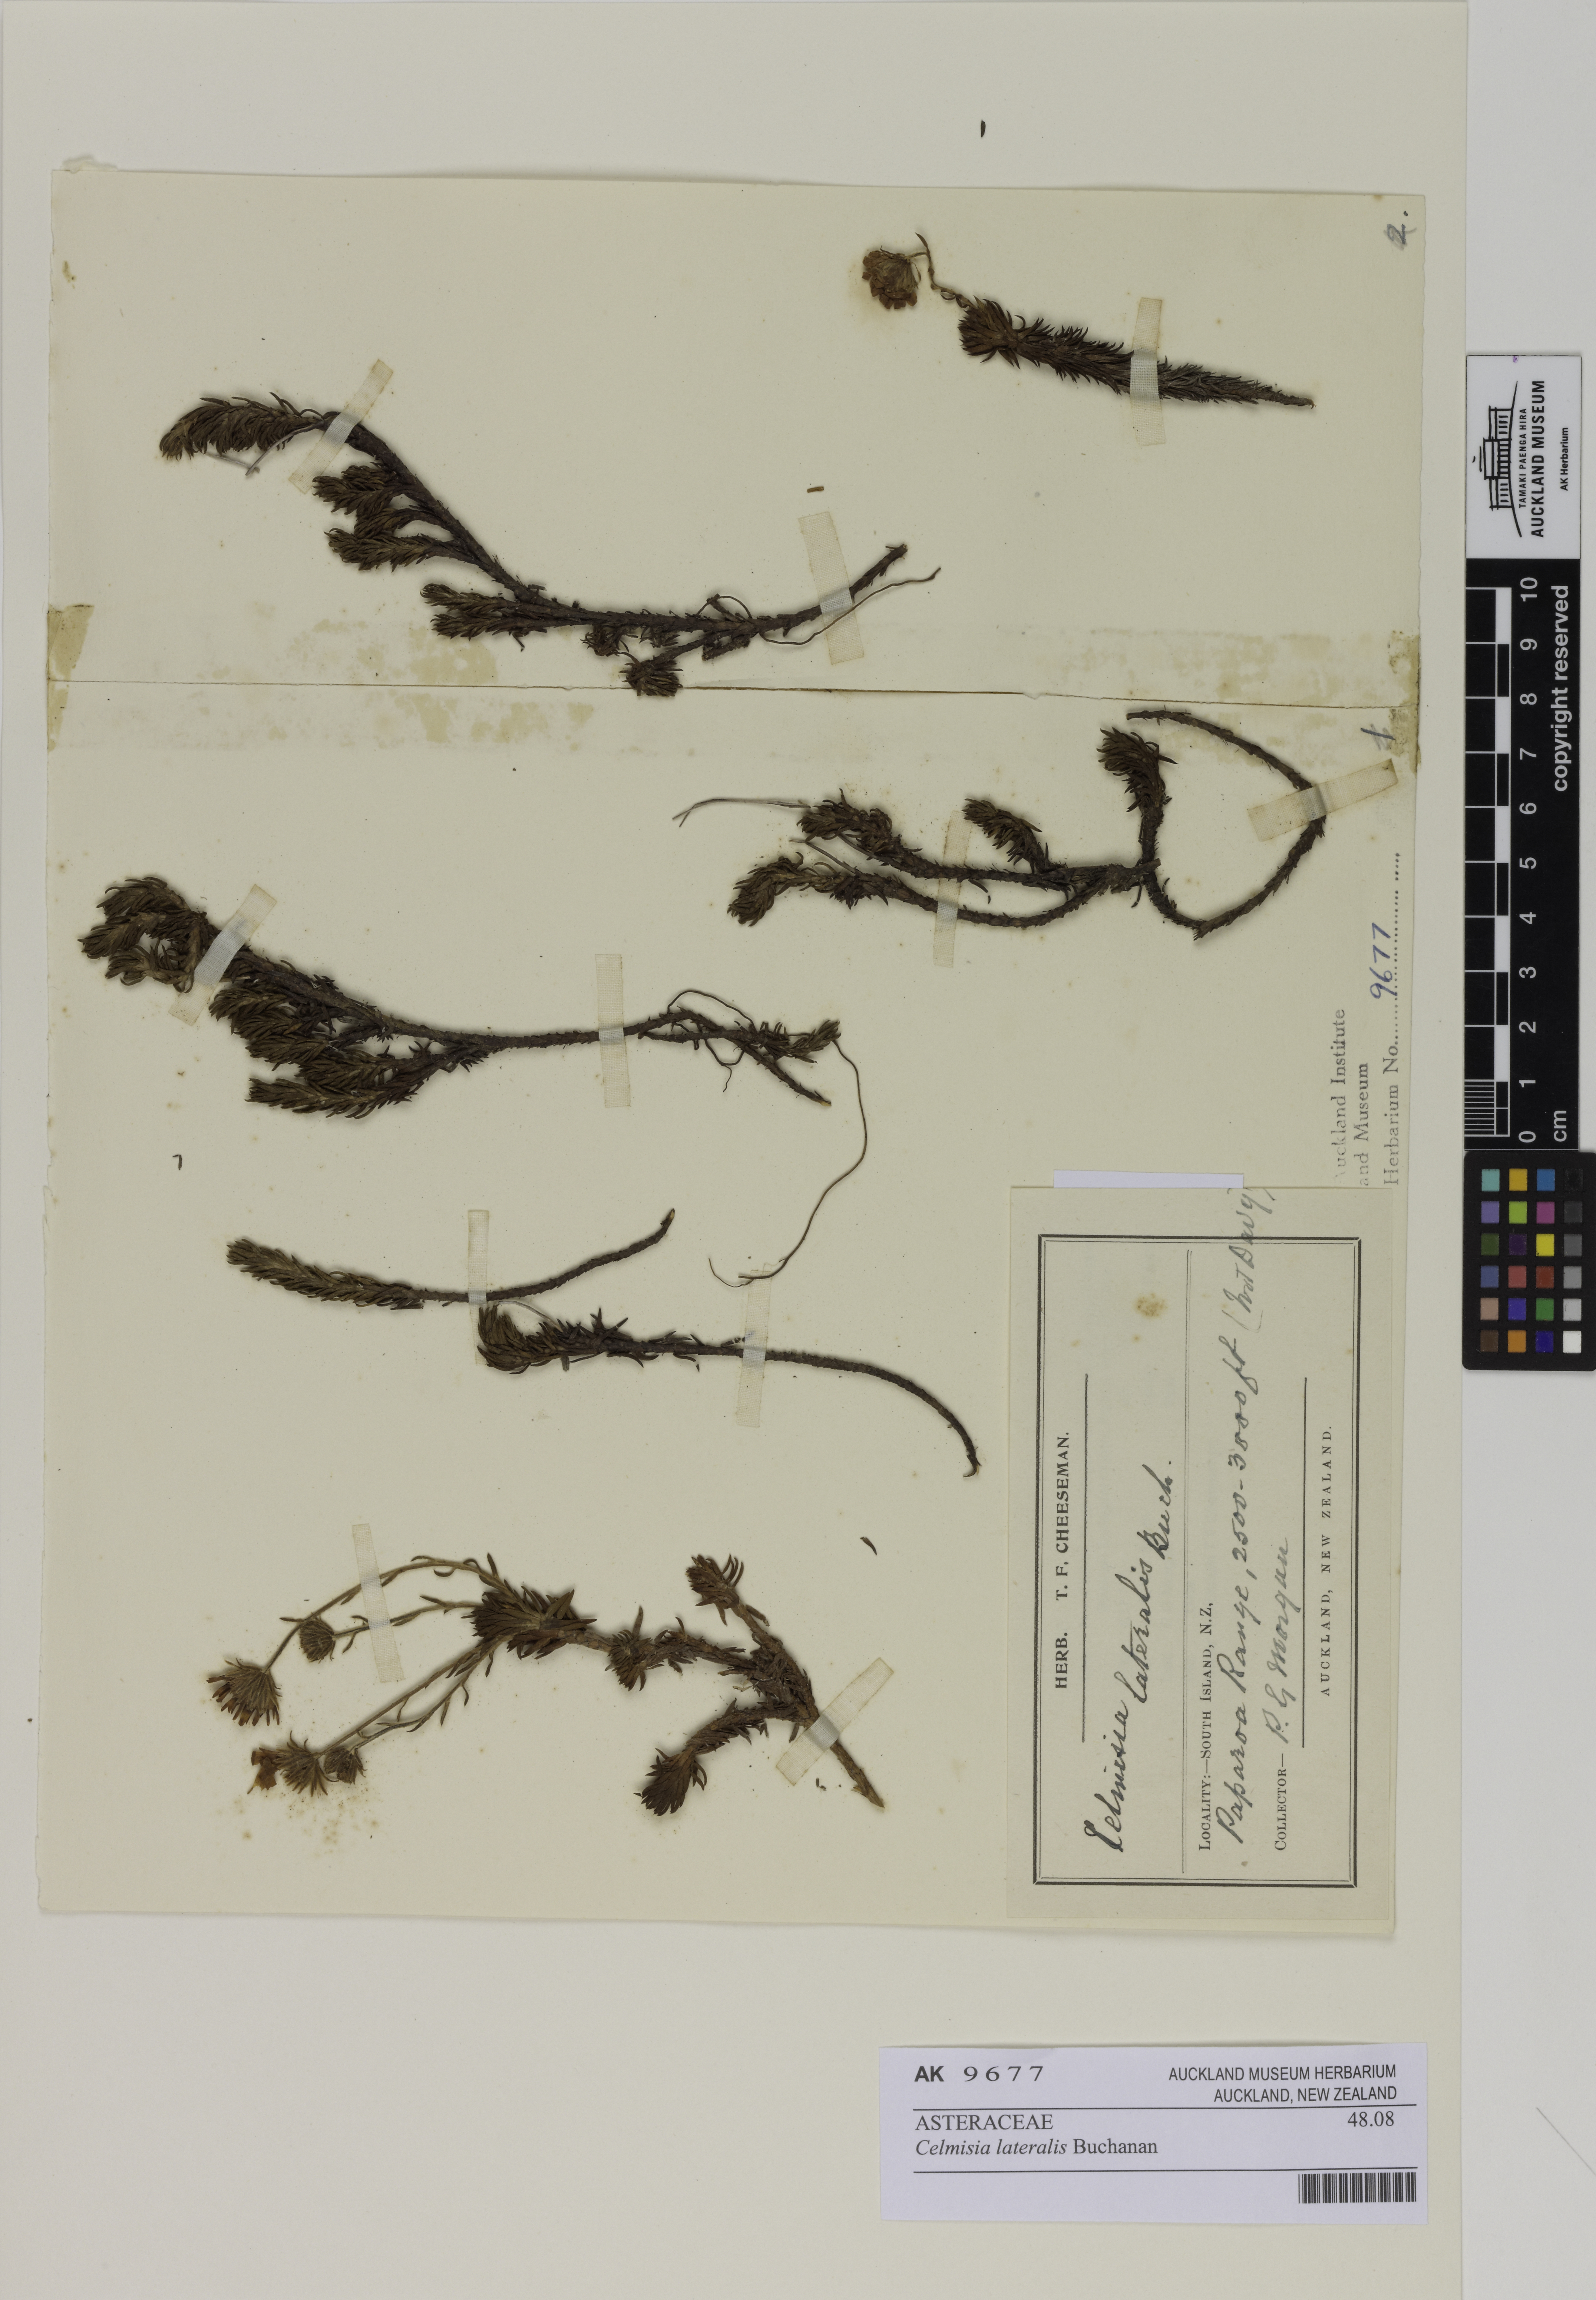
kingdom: Plantae
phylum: Tracheophyta
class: Magnoliopsida
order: Asterales
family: Asteraceae
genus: Celmisia
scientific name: Celmisia lateralis
